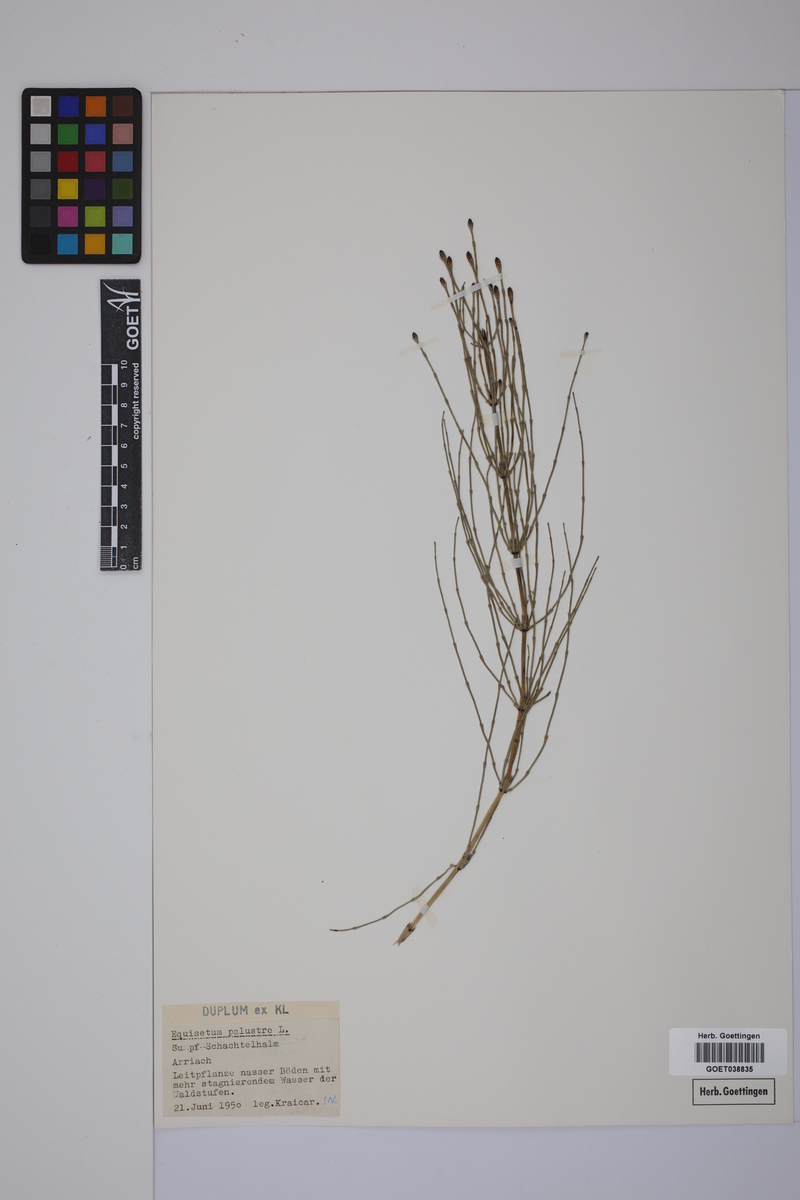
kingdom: Plantae
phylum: Tracheophyta
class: Polypodiopsida
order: Equisetales
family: Equisetaceae
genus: Equisetum
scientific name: Equisetum palustre
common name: Marsh horsetail
